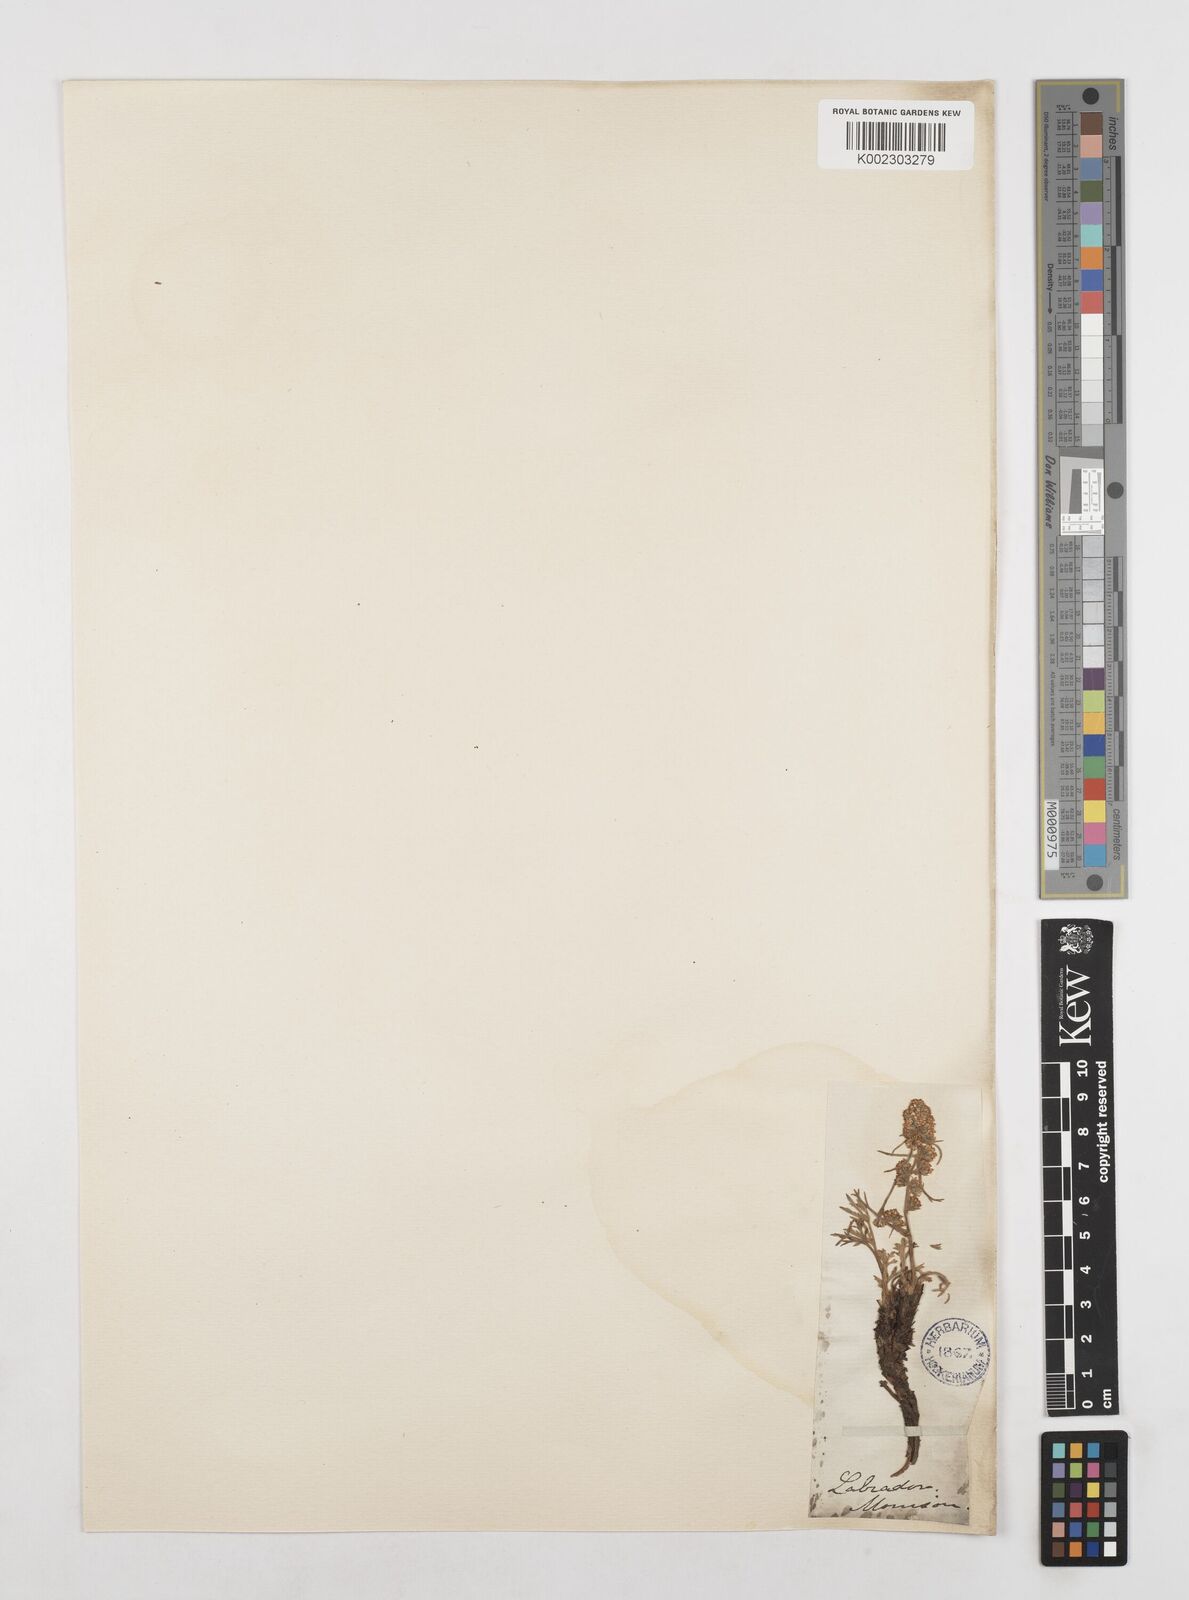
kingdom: Plantae
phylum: Tracheophyta
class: Magnoliopsida
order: Asterales
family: Asteraceae
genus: Artemisia
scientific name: Artemisia borealis
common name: Boreal sage
